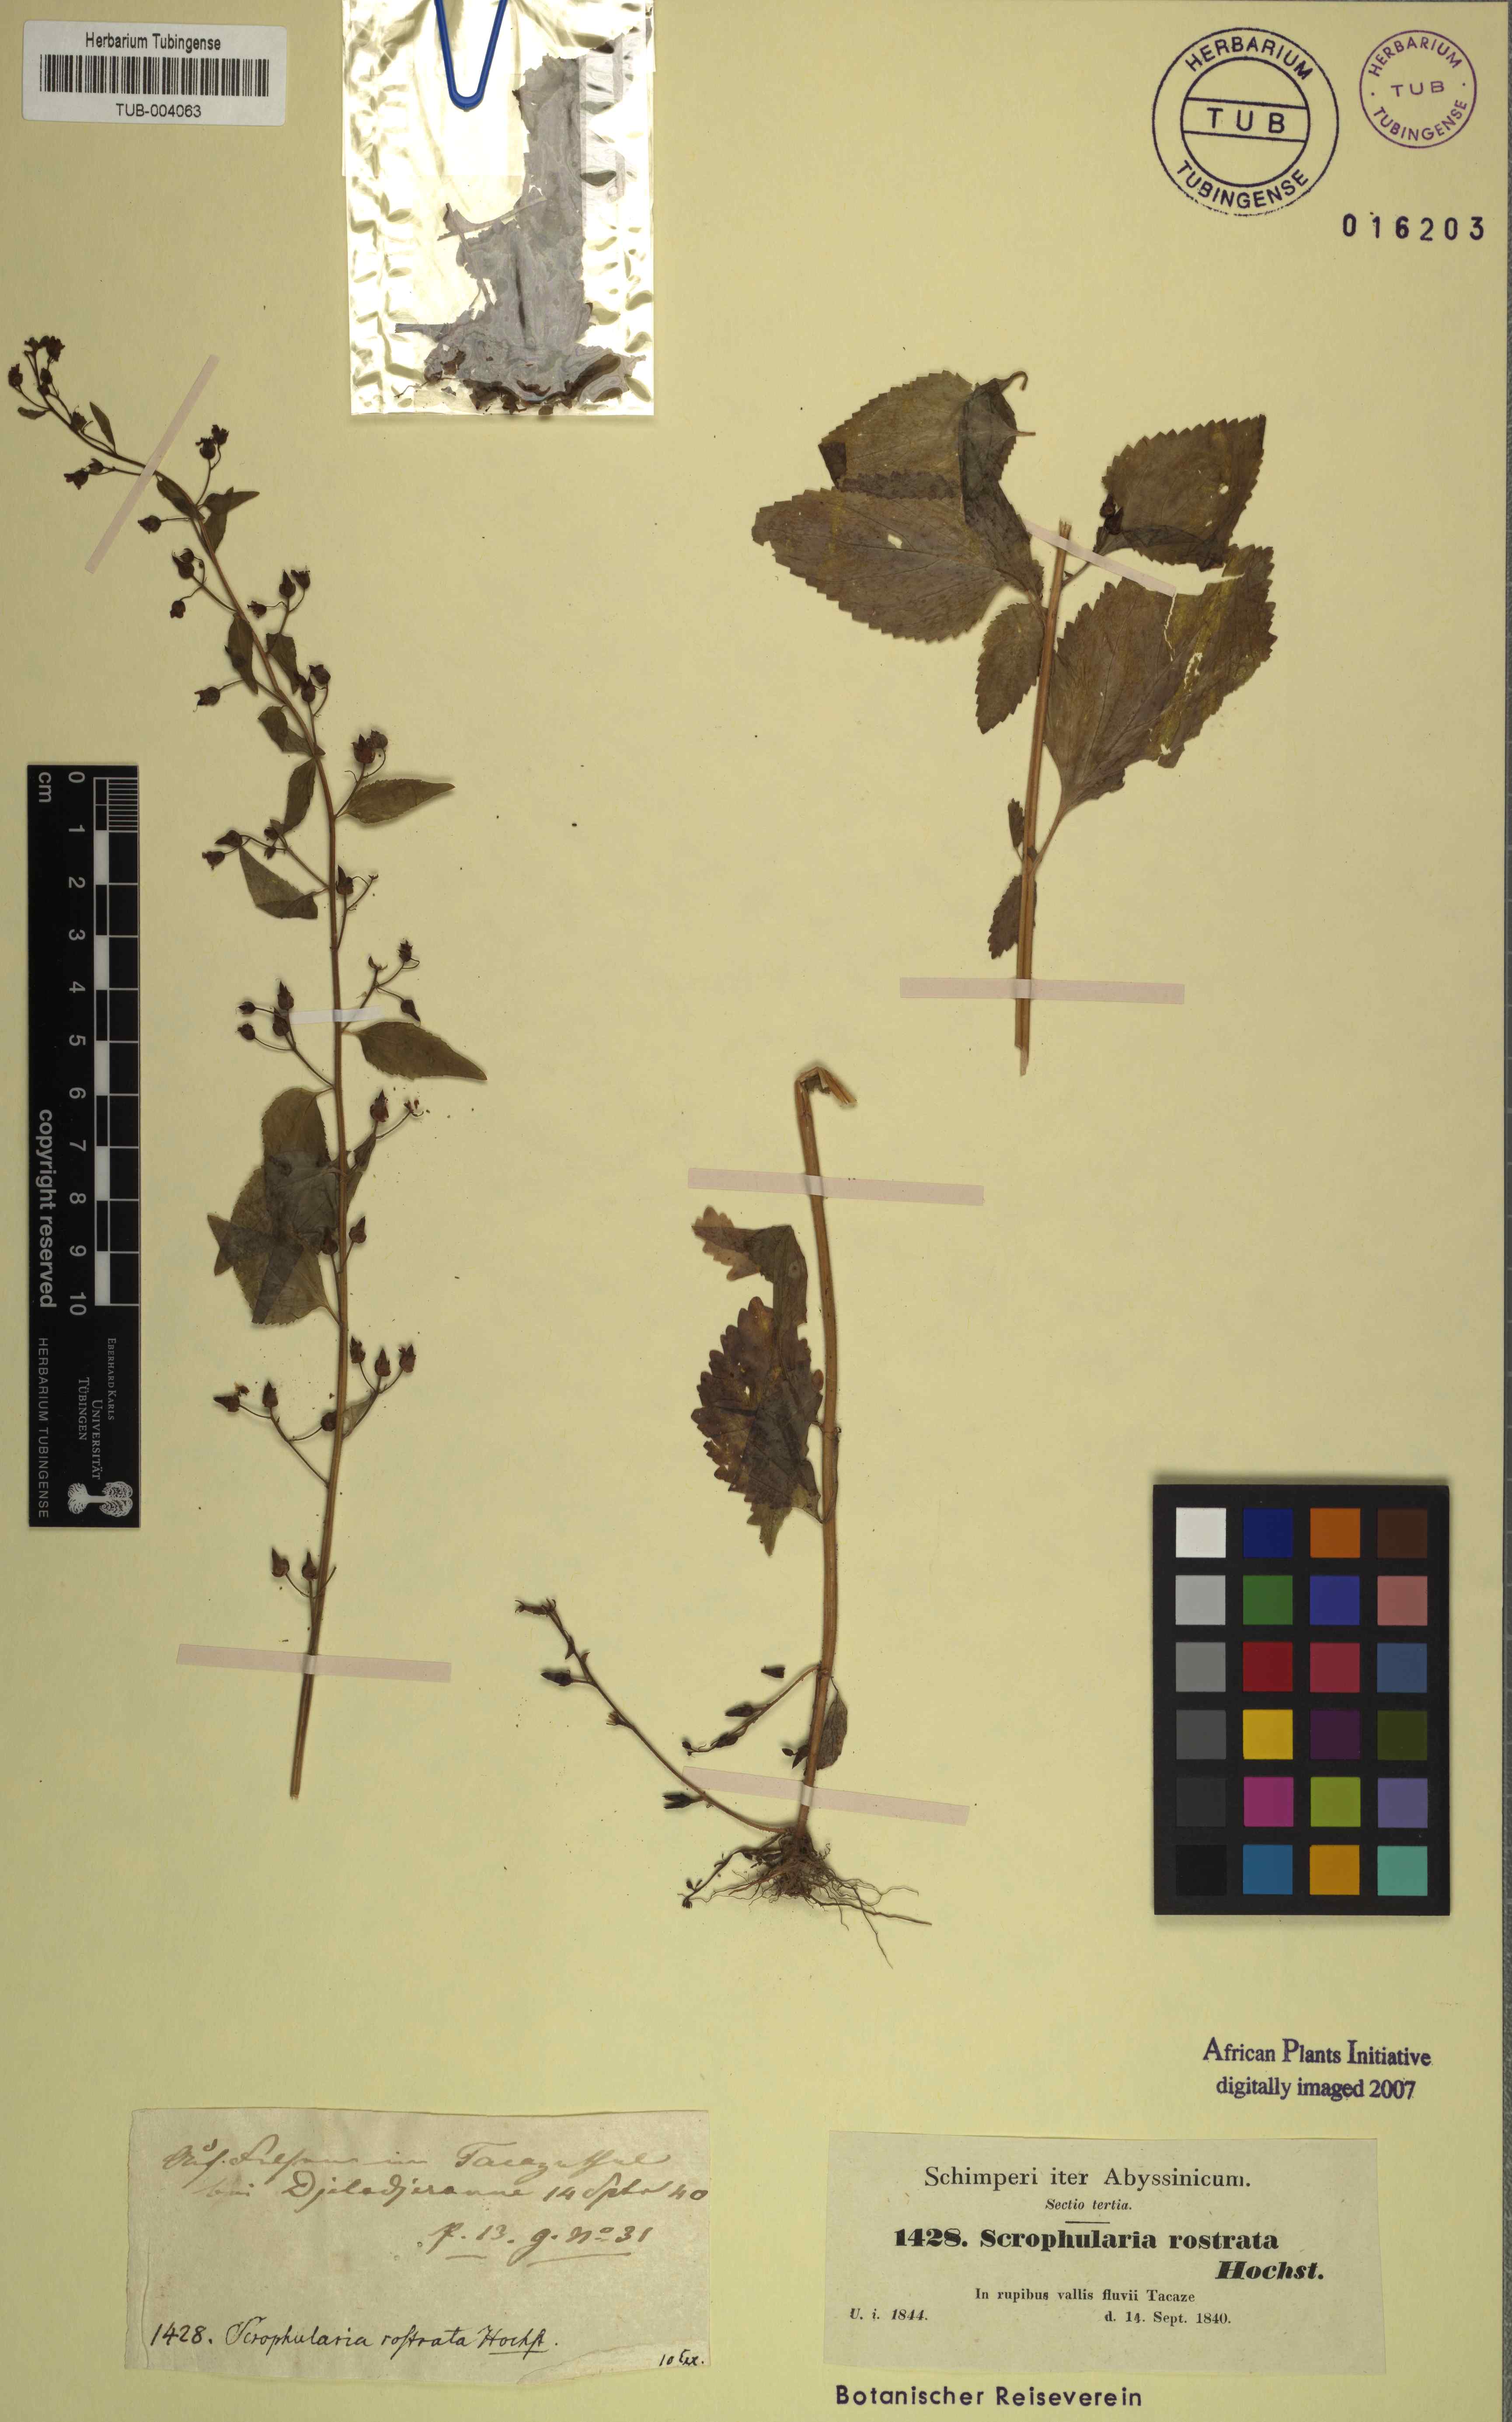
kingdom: Plantae
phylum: Tracheophyta
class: Magnoliopsida
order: Lamiales
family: Scrophulariaceae
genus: Scrophularia
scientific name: Scrophularia arguta
